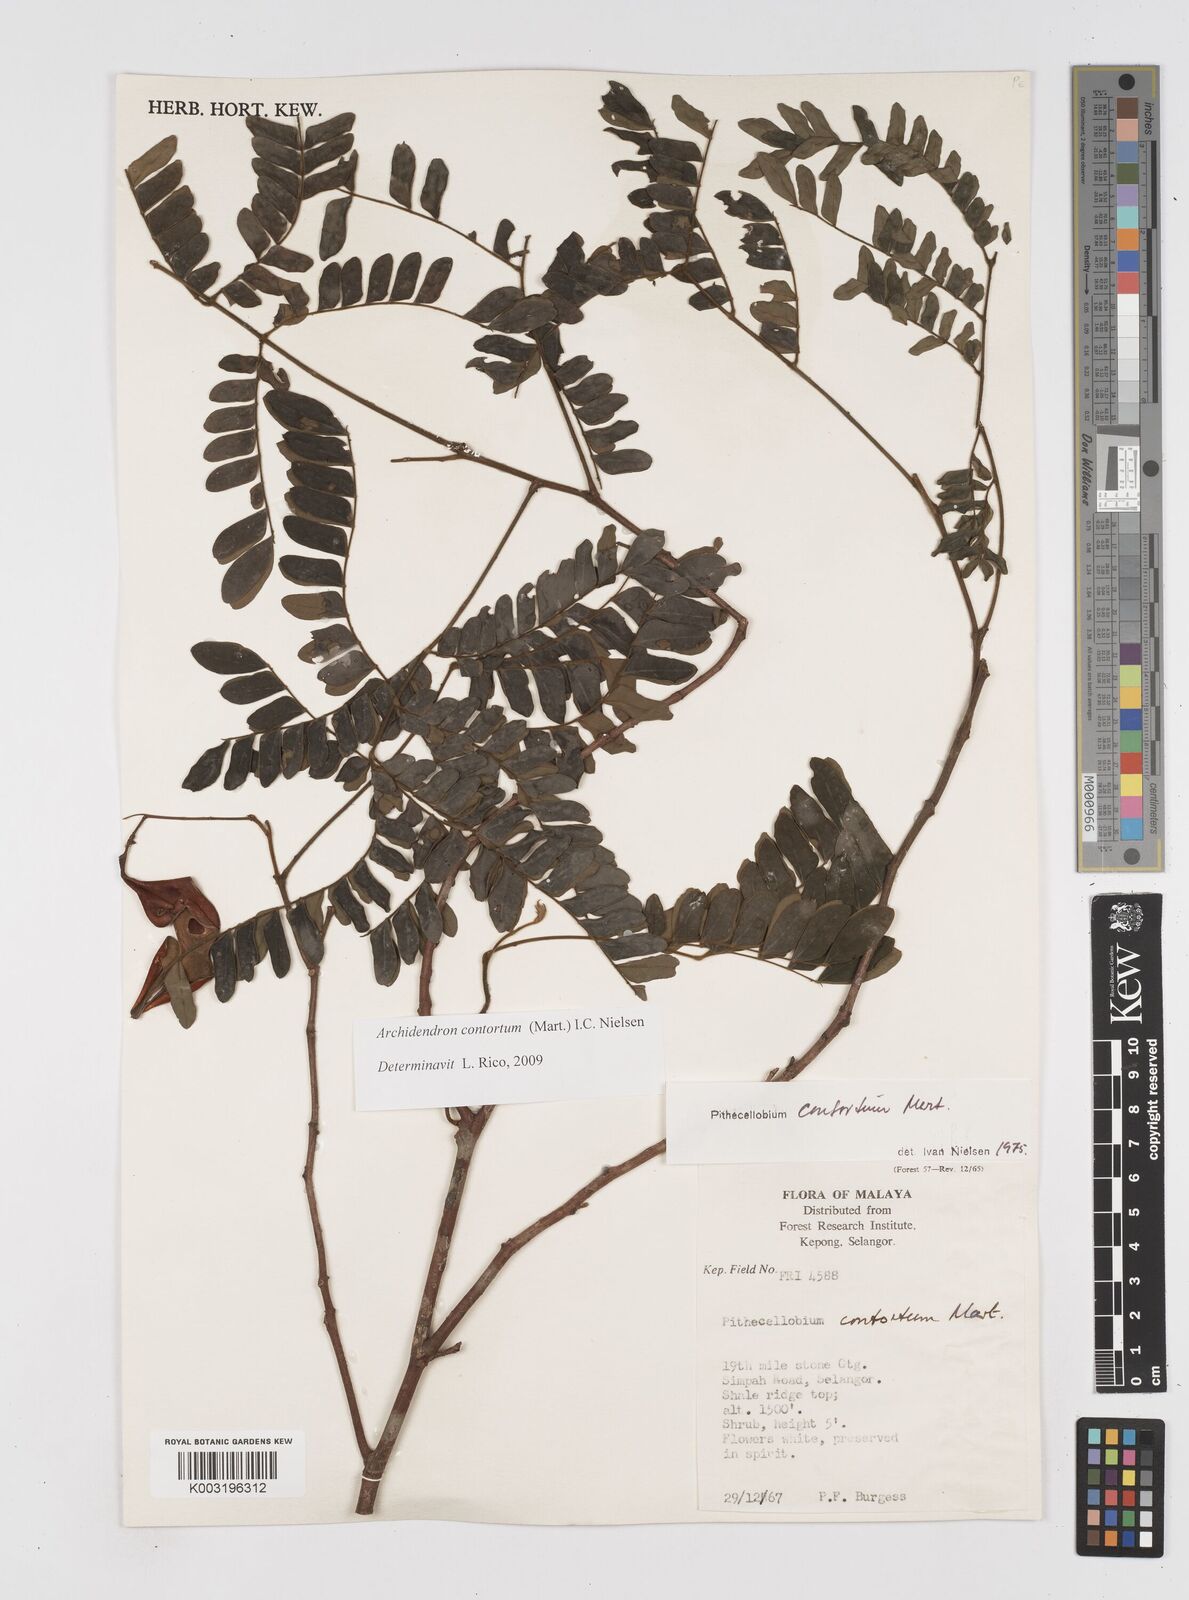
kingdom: Plantae
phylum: Tracheophyta
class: Magnoliopsida
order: Fabales
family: Fabaceae
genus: Archidendron
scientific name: Archidendron contortum
